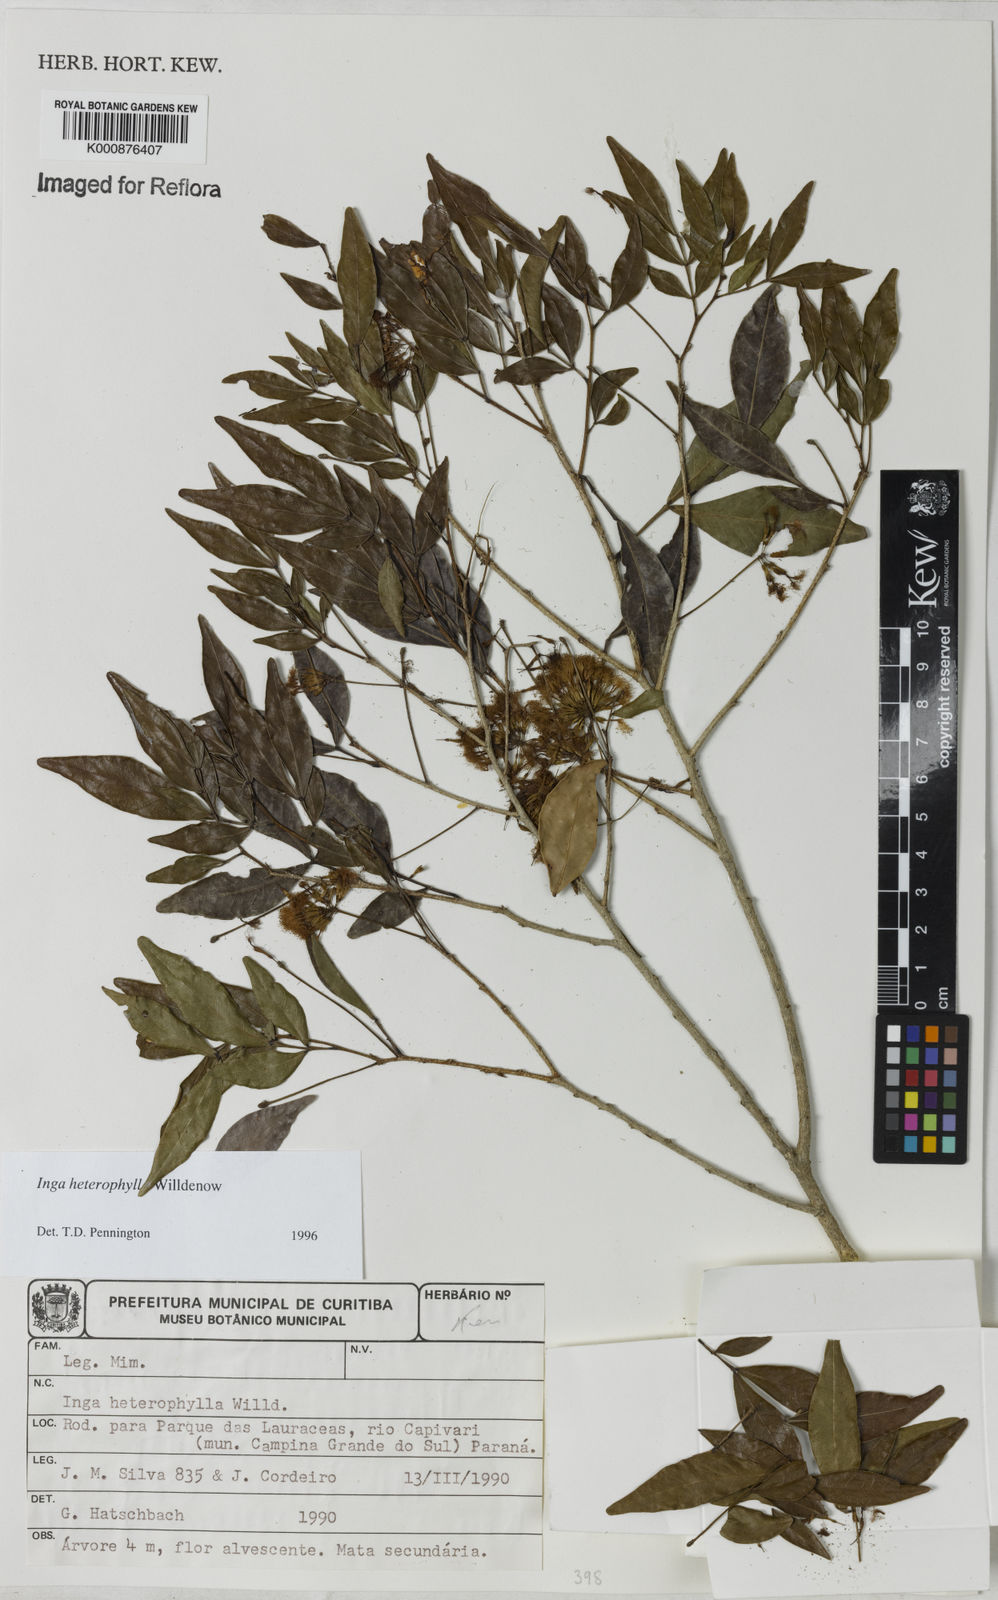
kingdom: Plantae
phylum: Tracheophyta
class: Magnoliopsida
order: Fabales
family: Fabaceae
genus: Inga
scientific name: Inga heterophylla
